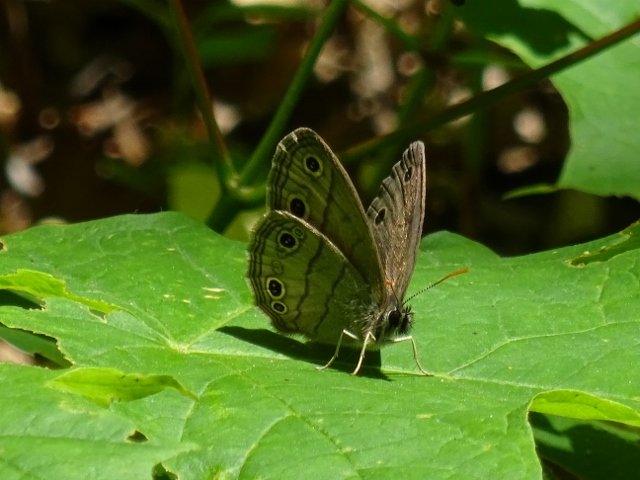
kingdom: Animalia
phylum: Arthropoda
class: Insecta
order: Lepidoptera
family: Nymphalidae
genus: Euptychia
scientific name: Euptychia cymela
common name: Little Wood Satyr
